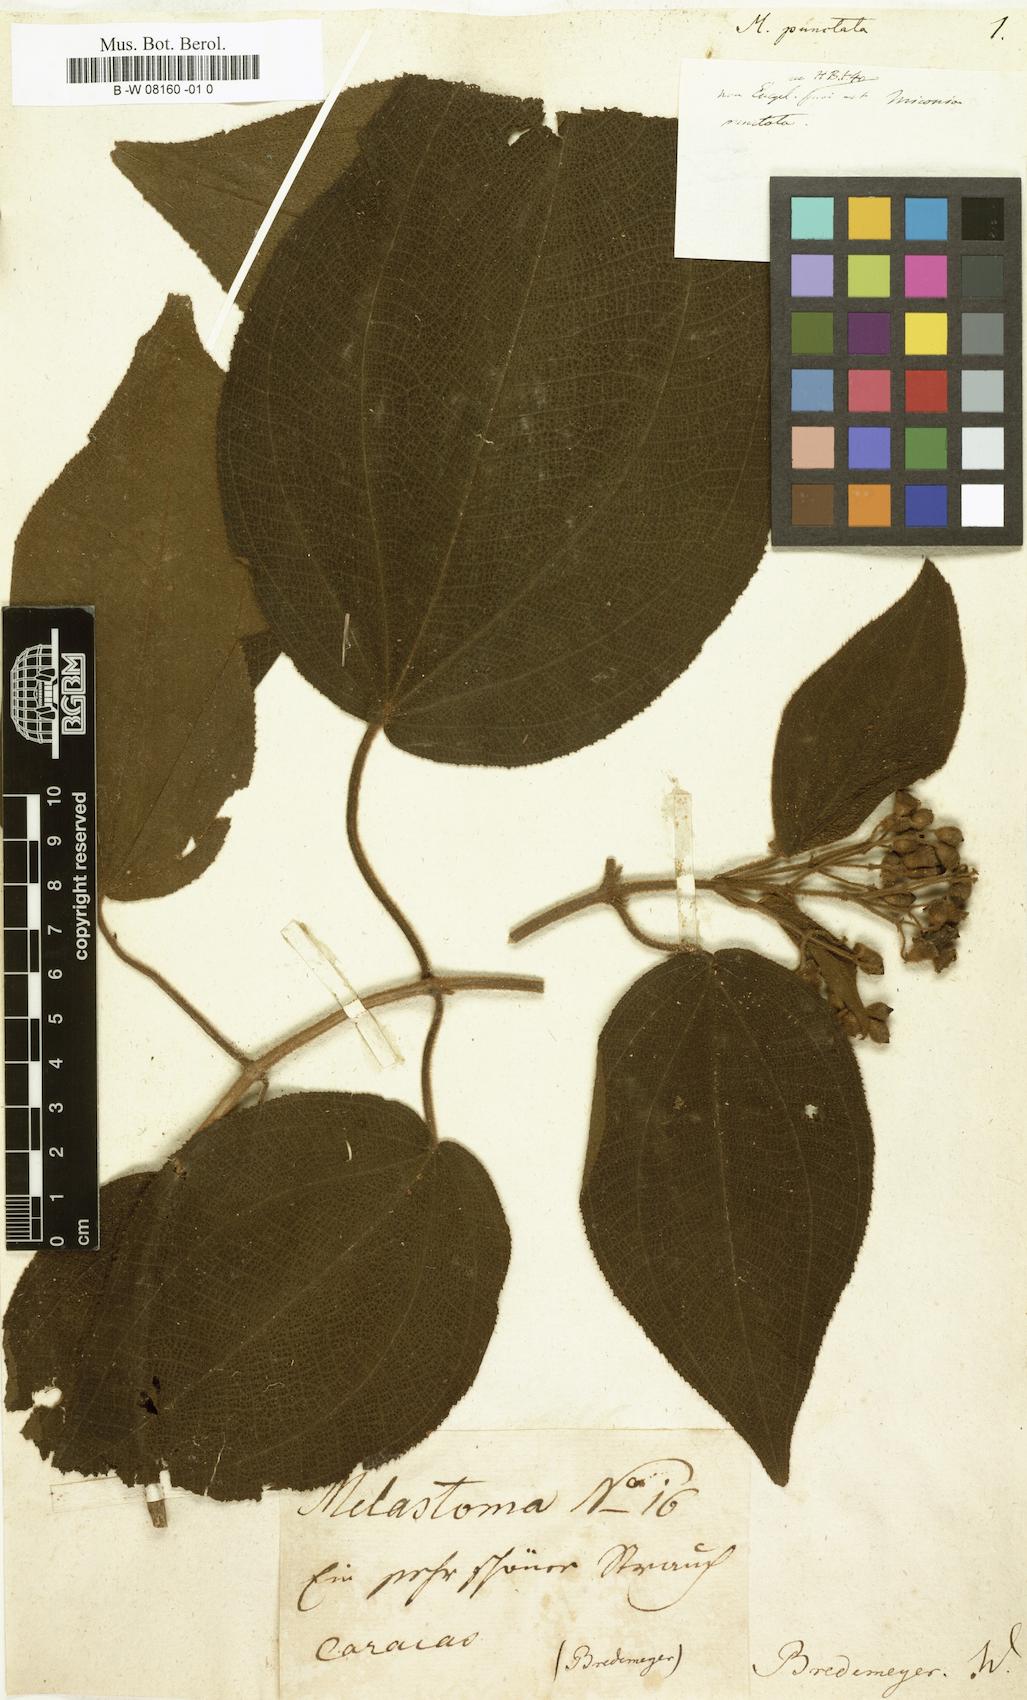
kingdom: Plantae
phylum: Tracheophyta
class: Magnoliopsida
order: Myrtales
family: Melastomataceae
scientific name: Melastomataceae
